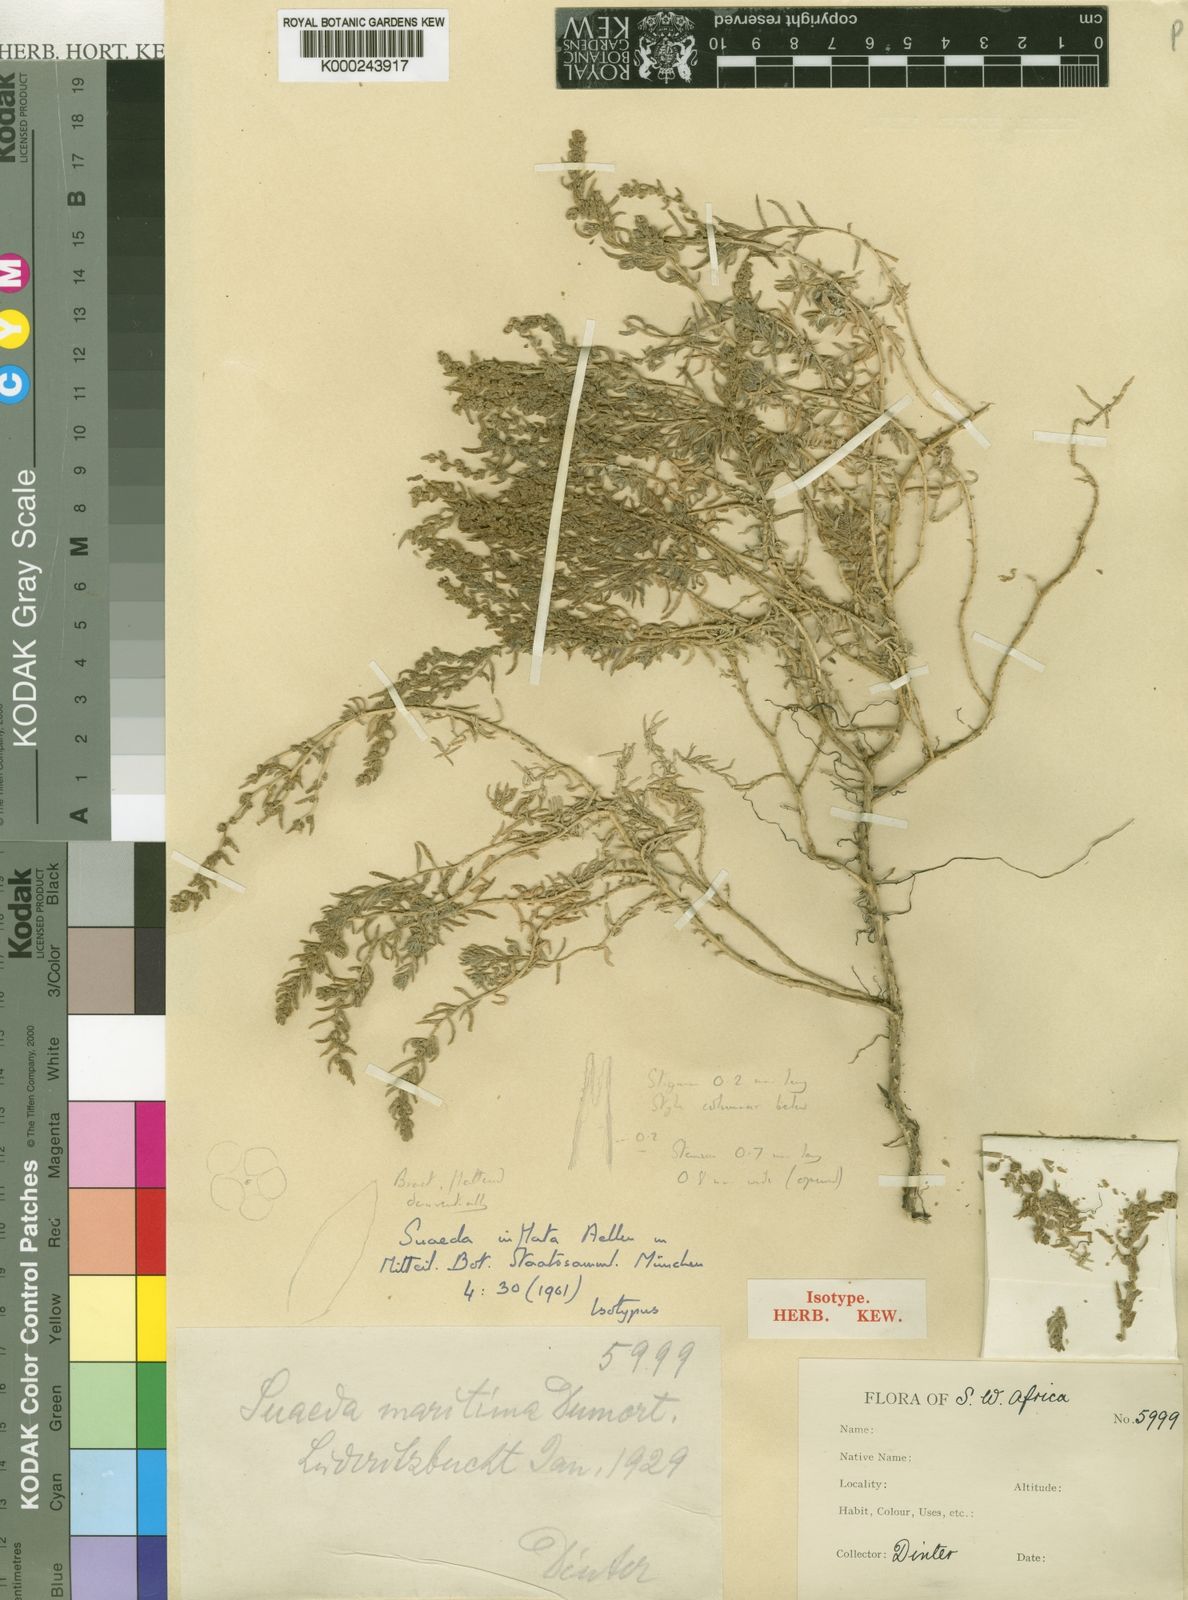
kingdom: Plantae
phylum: Tracheophyta
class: Magnoliopsida
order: Caryophyllales
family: Amaranthaceae
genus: Suaeda
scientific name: Suaeda inflata
